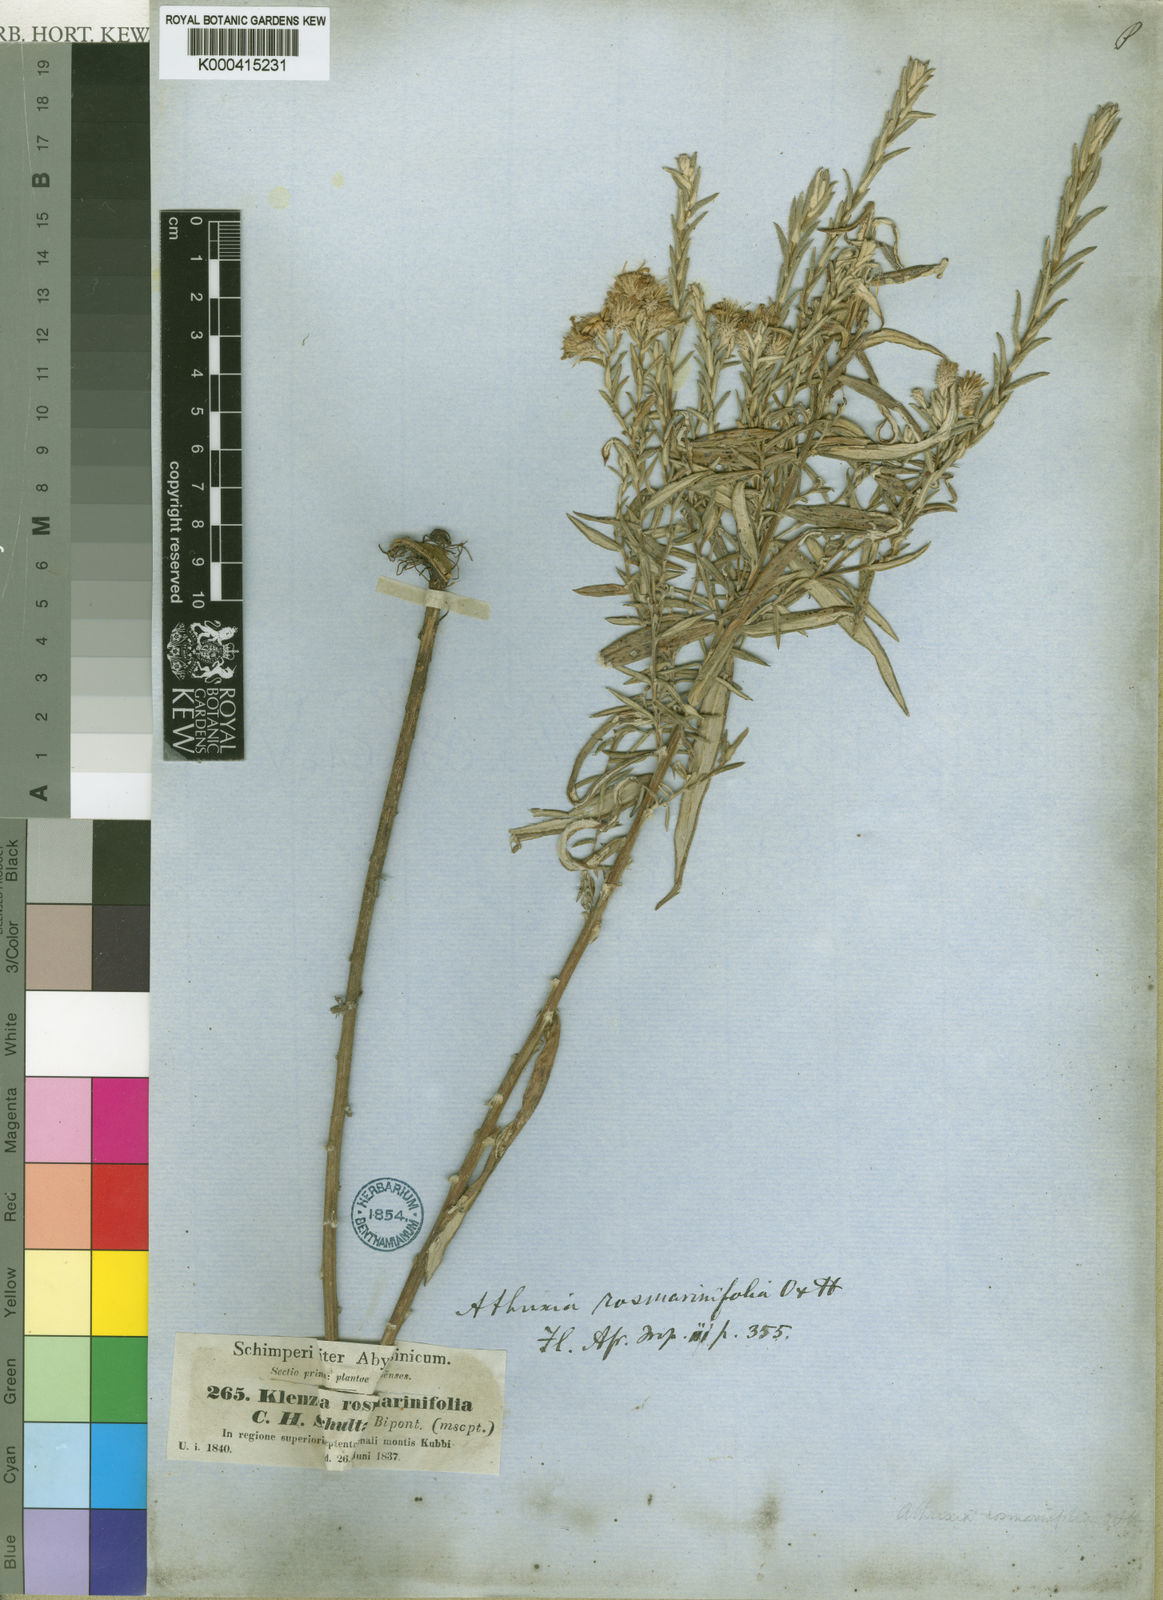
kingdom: Plantae
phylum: Tracheophyta
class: Magnoliopsida
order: Asterales
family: Asteraceae
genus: Athrixia
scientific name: Athrixia rosmarinifolia
